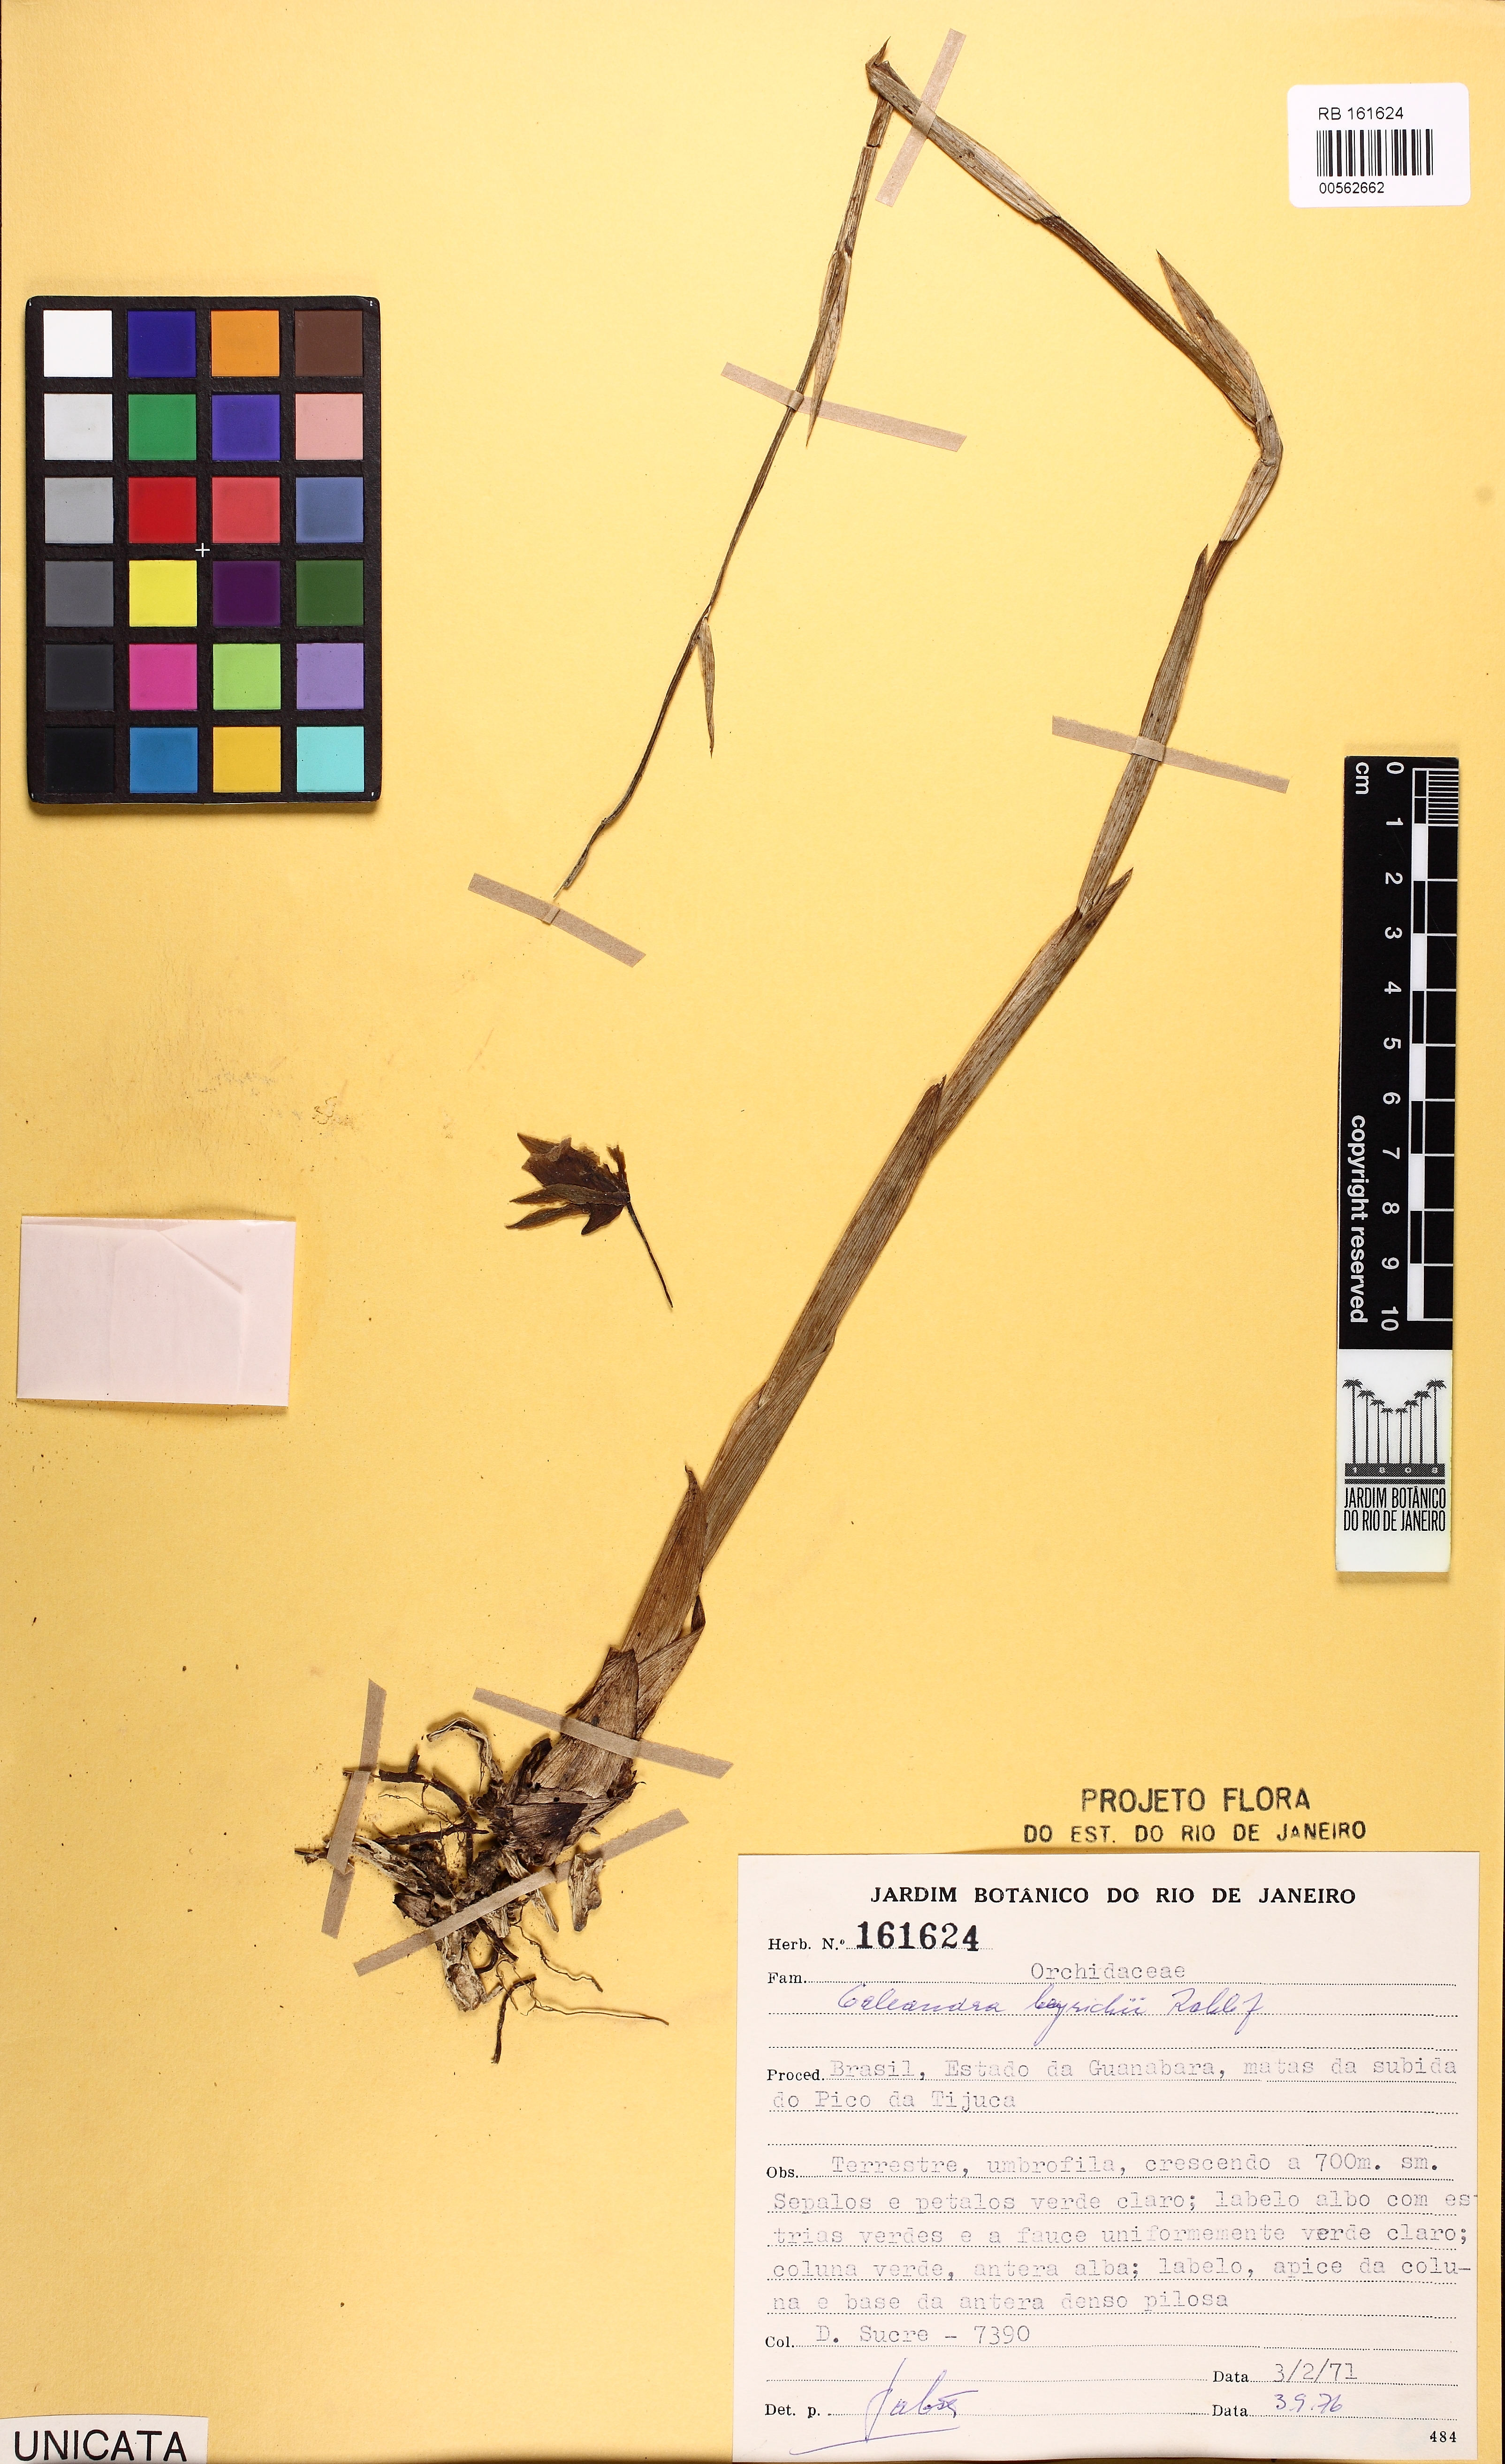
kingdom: Plantae
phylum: Tracheophyta
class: Liliopsida
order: Asparagales
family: Orchidaceae
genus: Galeandra
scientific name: Galeandra beyrichii
